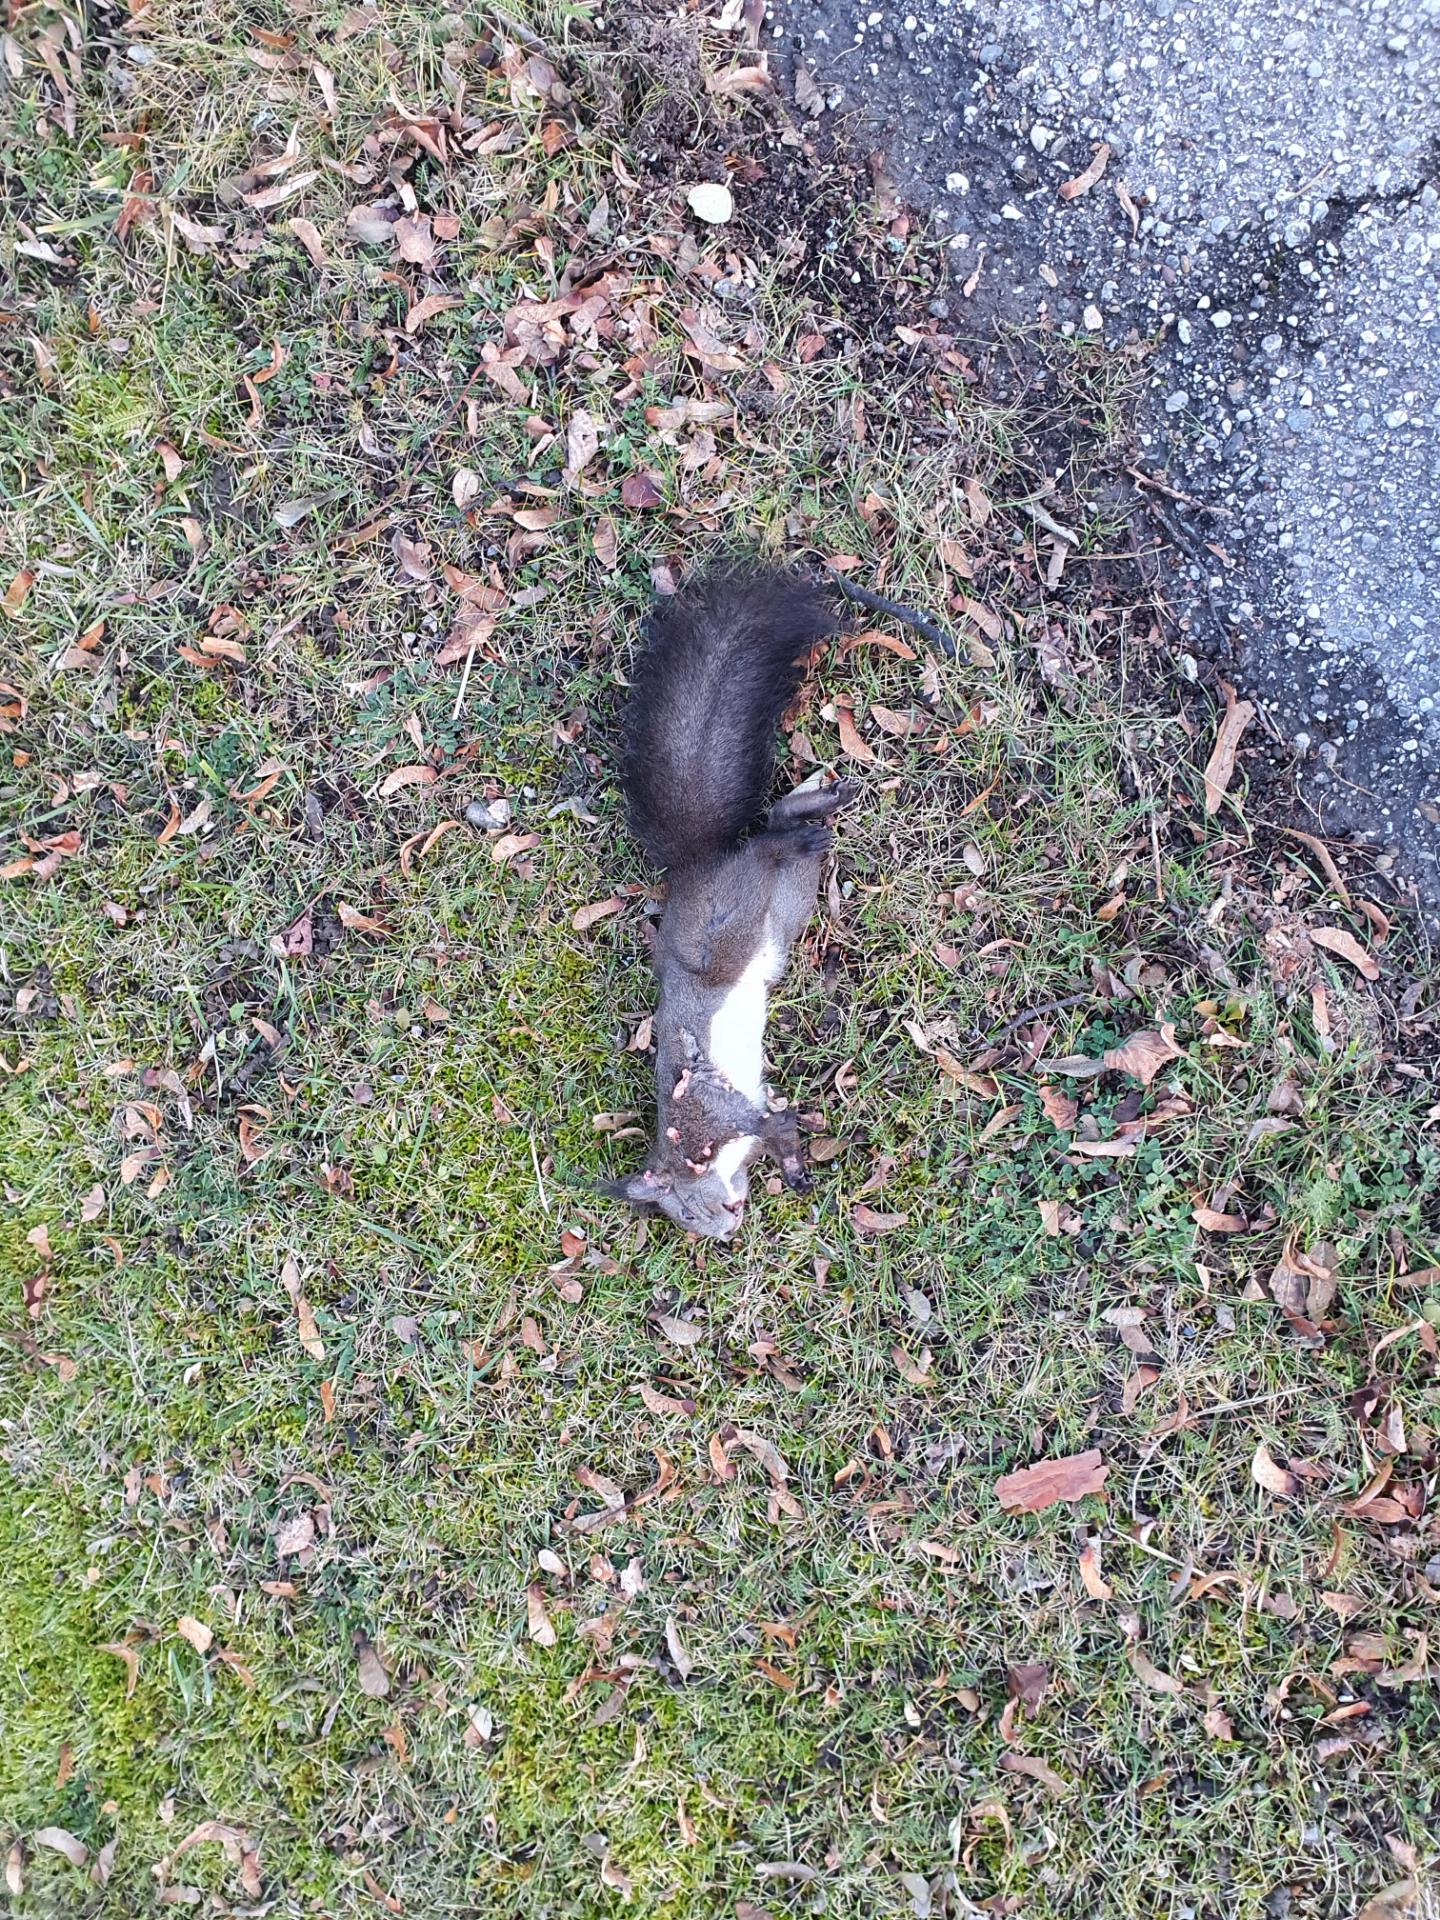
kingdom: Animalia
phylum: Chordata
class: Mammalia
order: Rodentia
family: Sciuridae
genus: Sciurus
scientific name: Sciurus vulgaris
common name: Eurasian red squirrel
